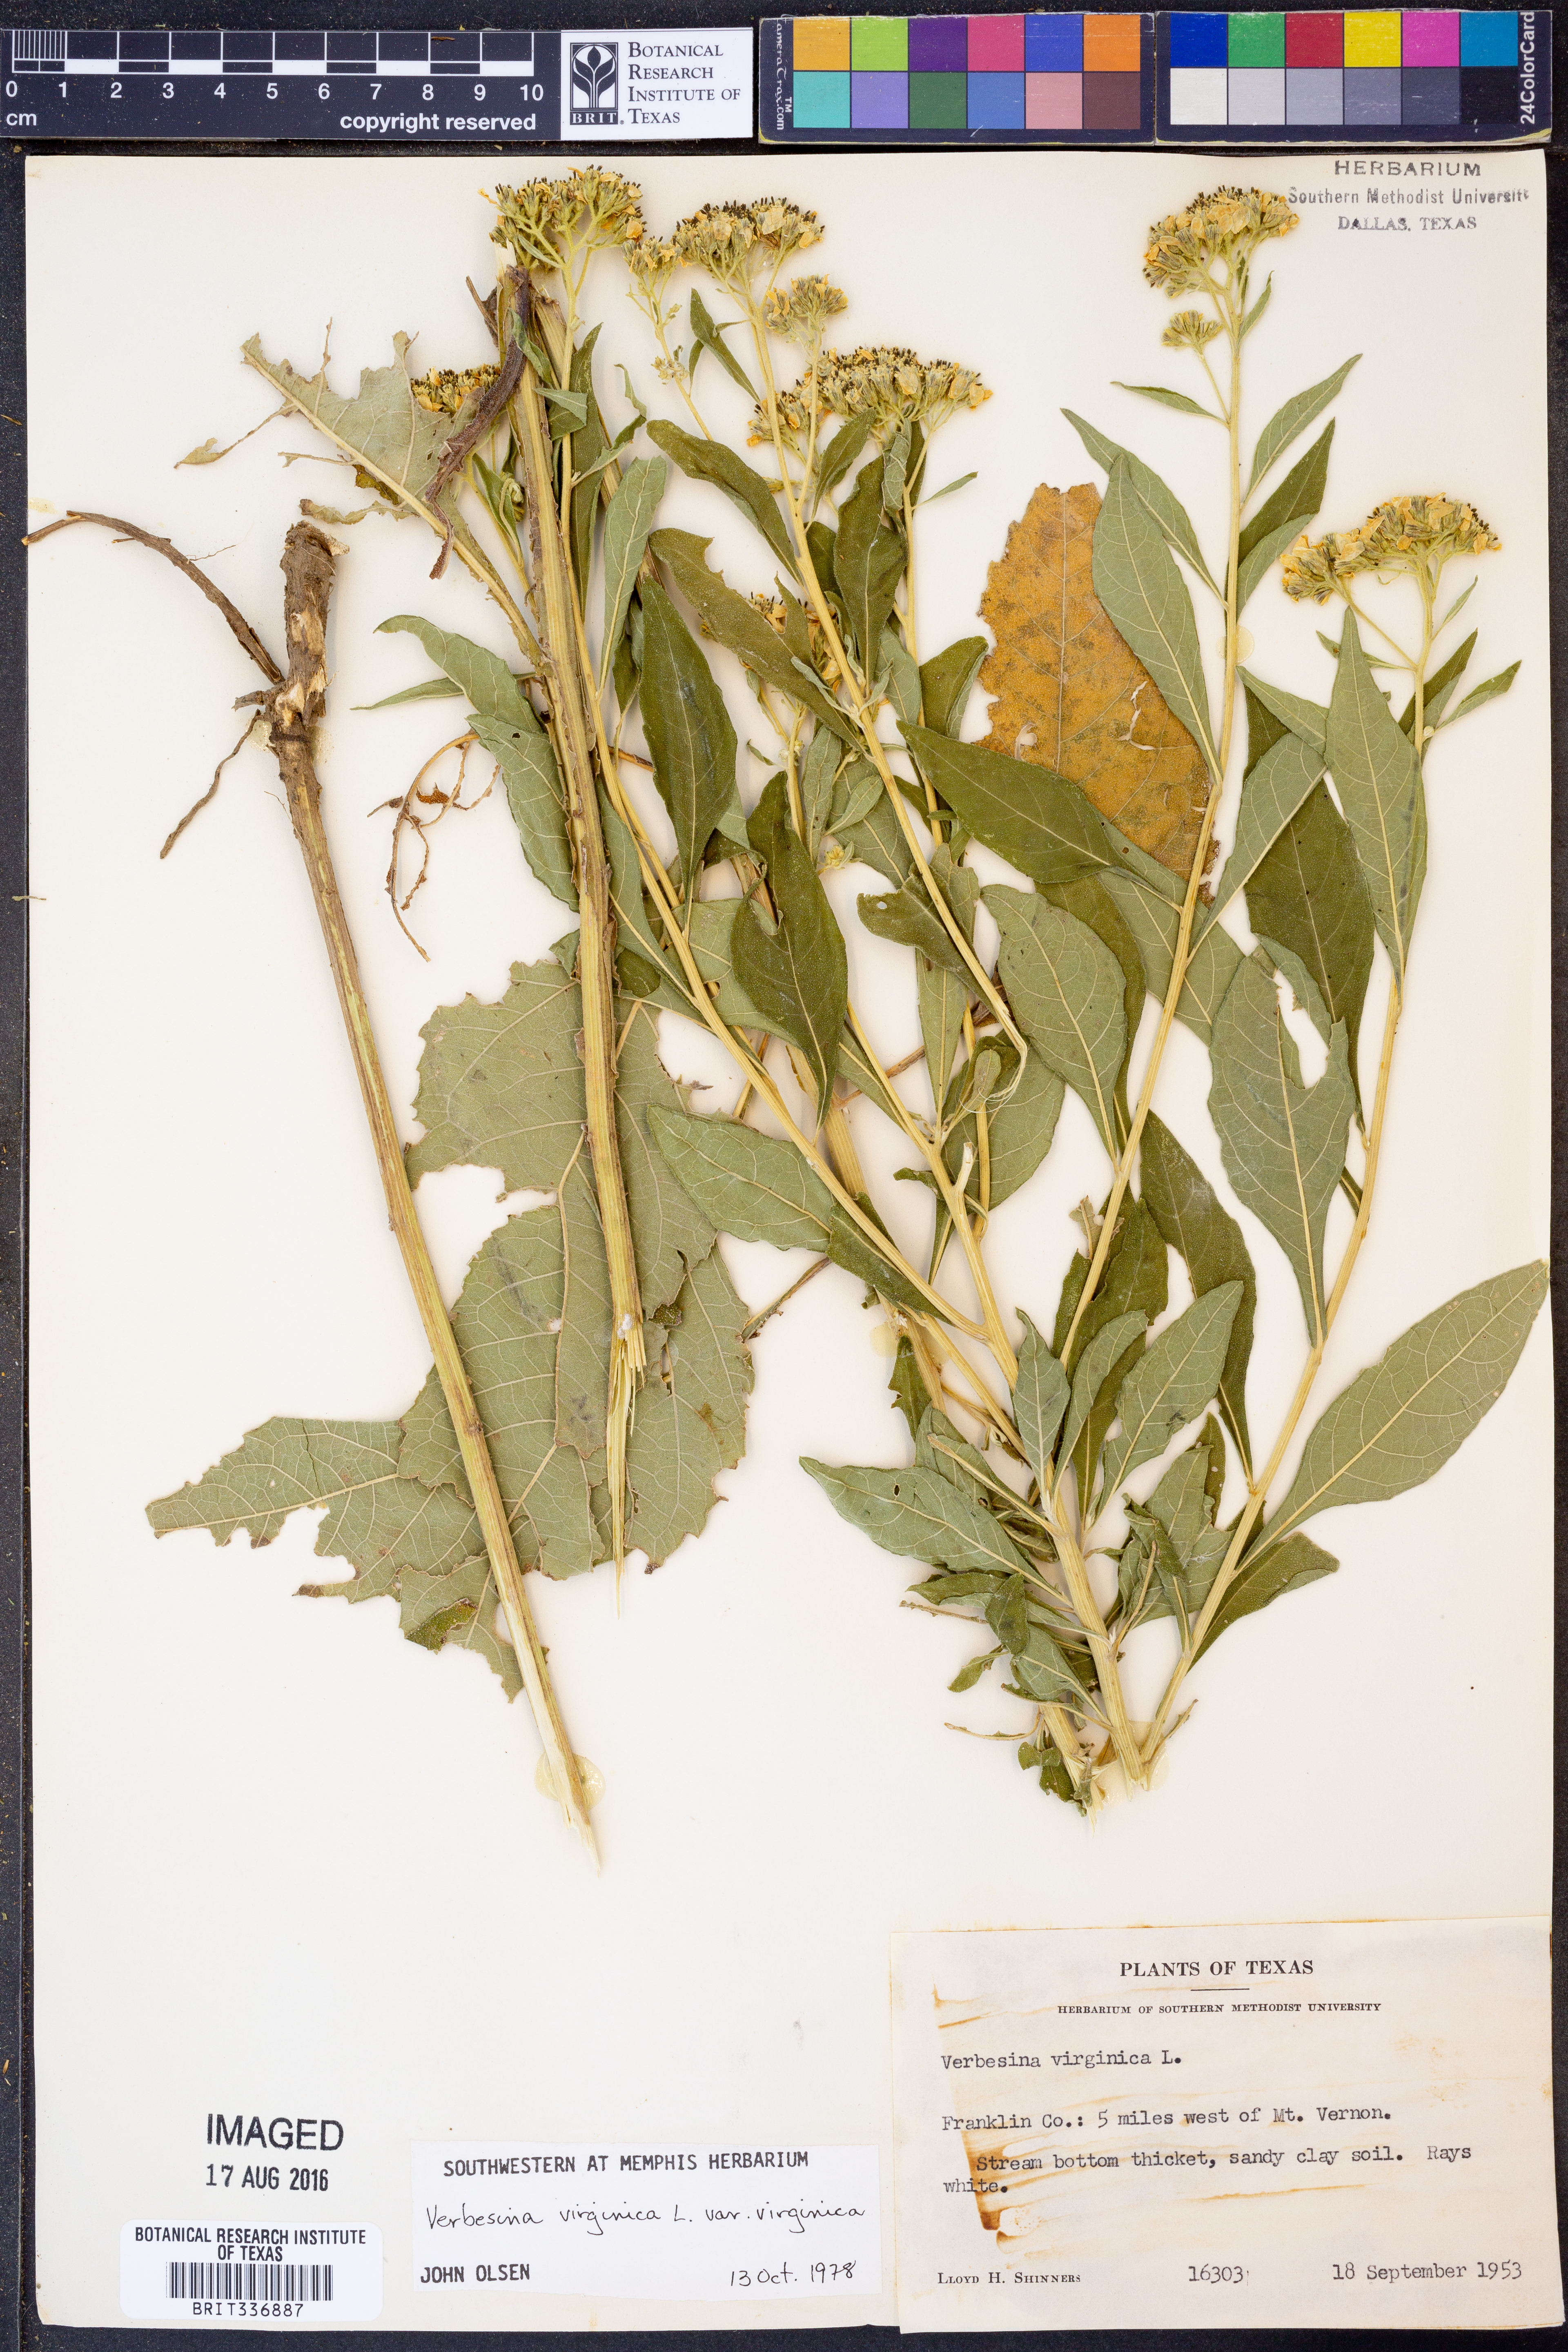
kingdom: Plantae
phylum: Tracheophyta
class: Magnoliopsida
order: Asterales
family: Asteraceae
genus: Verbesina
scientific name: Verbesina virginica
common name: Frostweed
